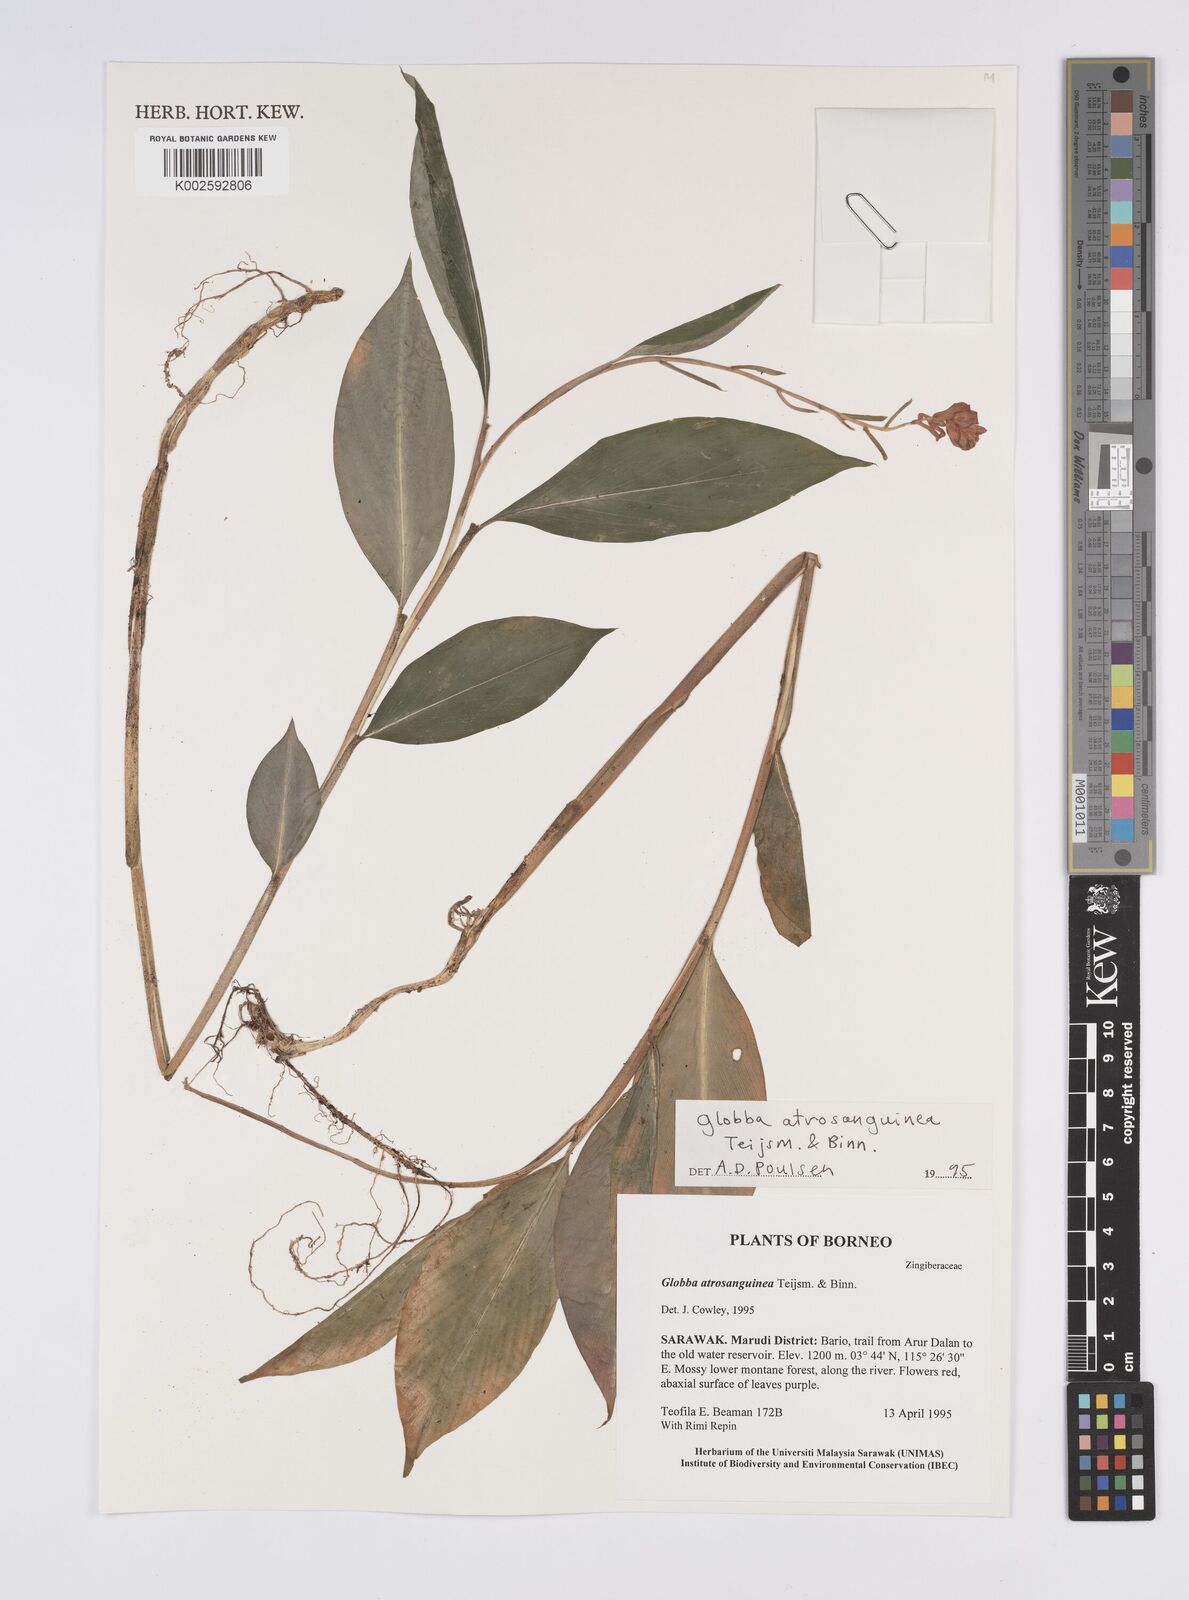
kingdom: Plantae
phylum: Tracheophyta
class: Liliopsida
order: Zingiberales
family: Zingiberaceae
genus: Globba
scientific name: Globba atrosanguinea
